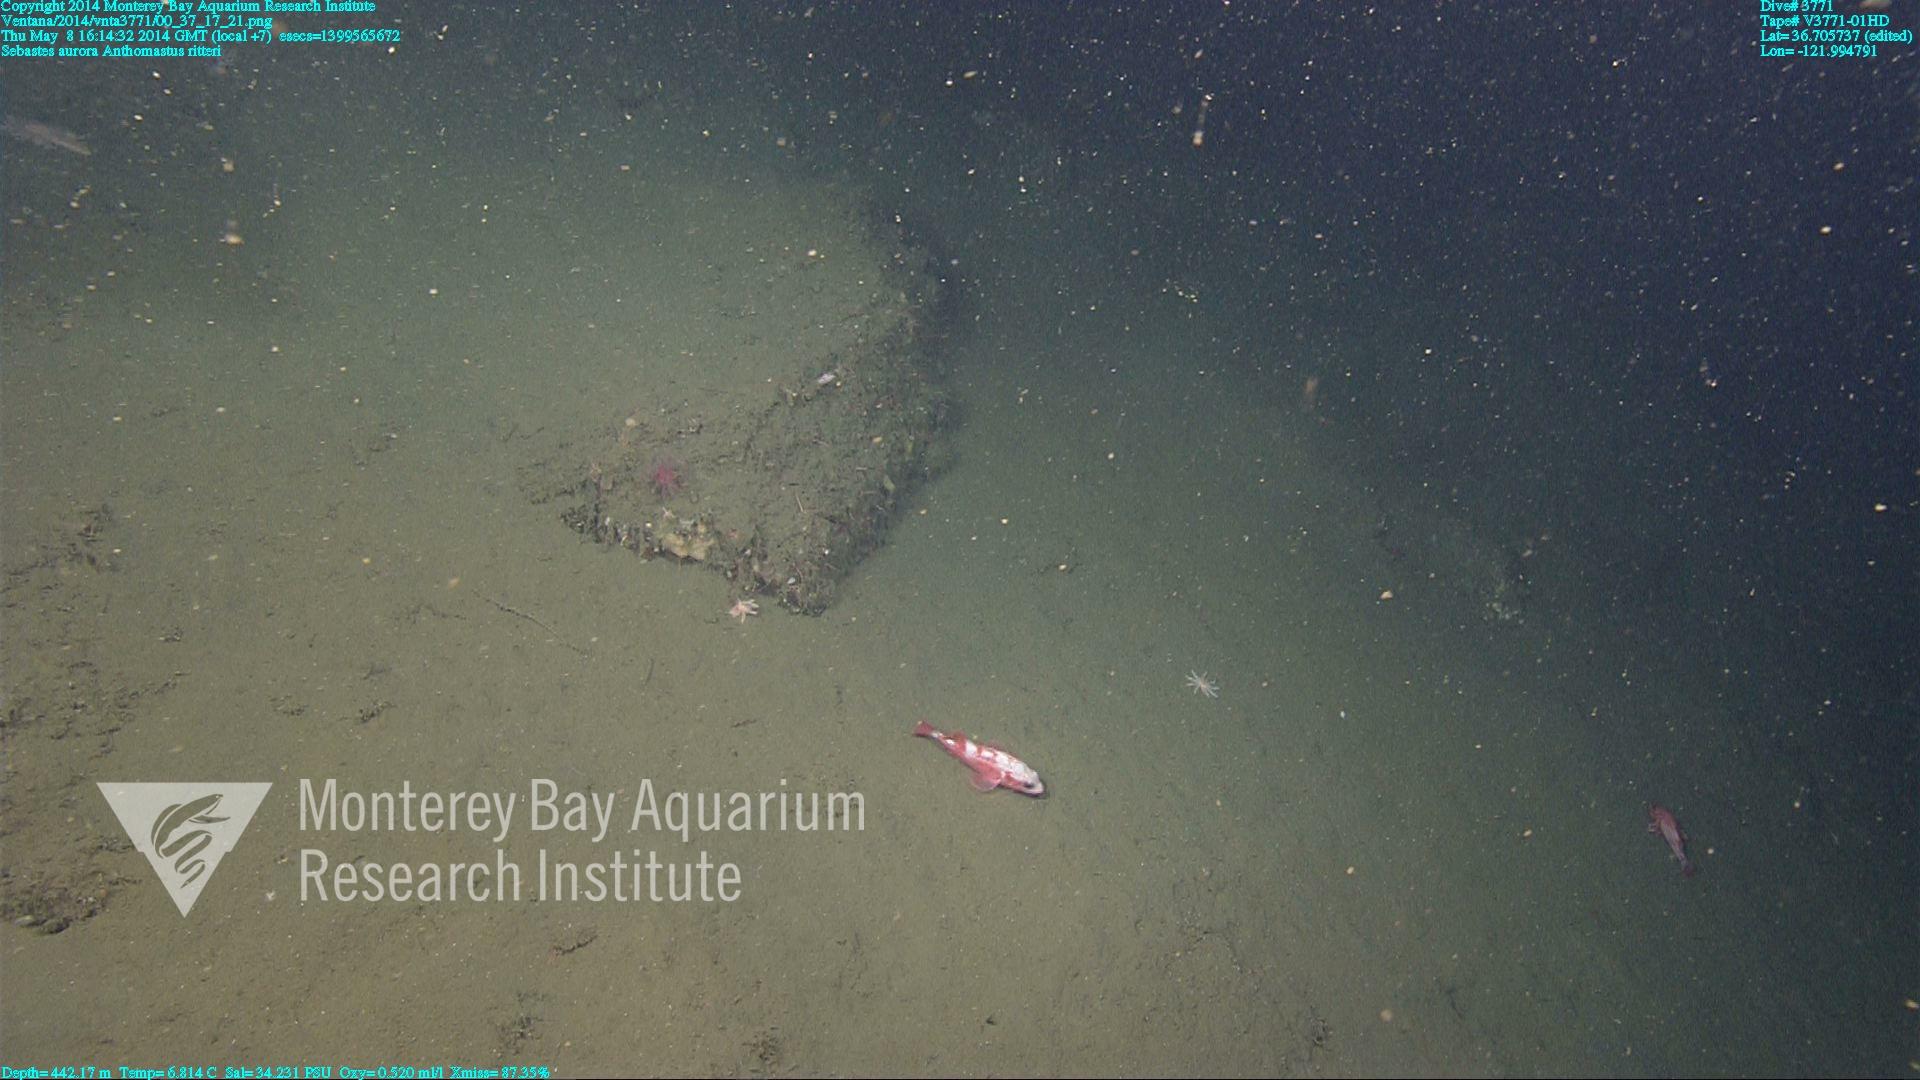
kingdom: Animalia
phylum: Cnidaria
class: Anthozoa
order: Scleralcyonacea
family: Coralliidae
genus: Heteropolypus
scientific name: Heteropolypus ritteri
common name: Ritter's soft coral
